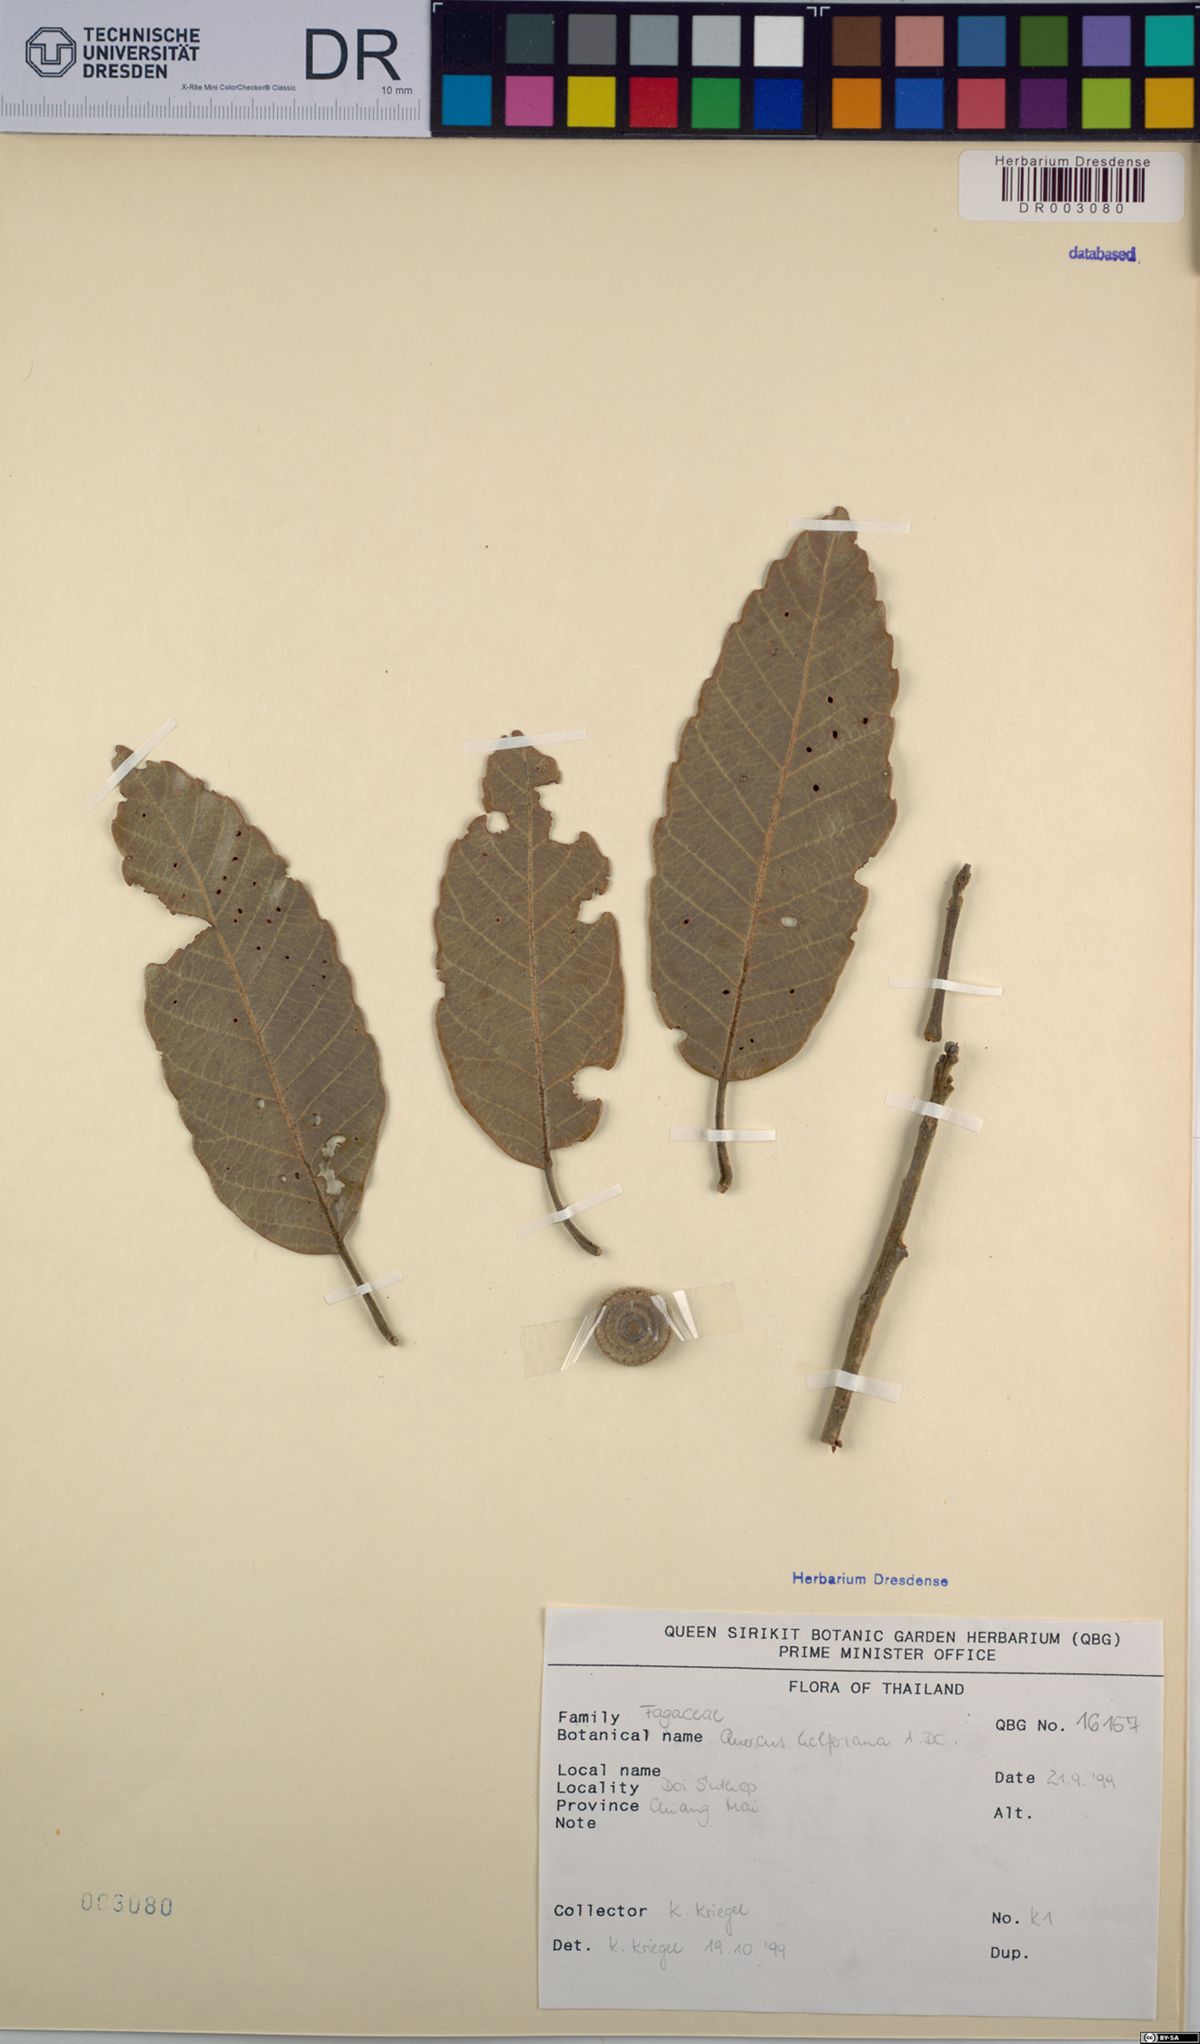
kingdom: Plantae
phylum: Tracheophyta
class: Magnoliopsida
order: Fagales
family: Fagaceae
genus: Quercus
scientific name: Quercus helferiana
